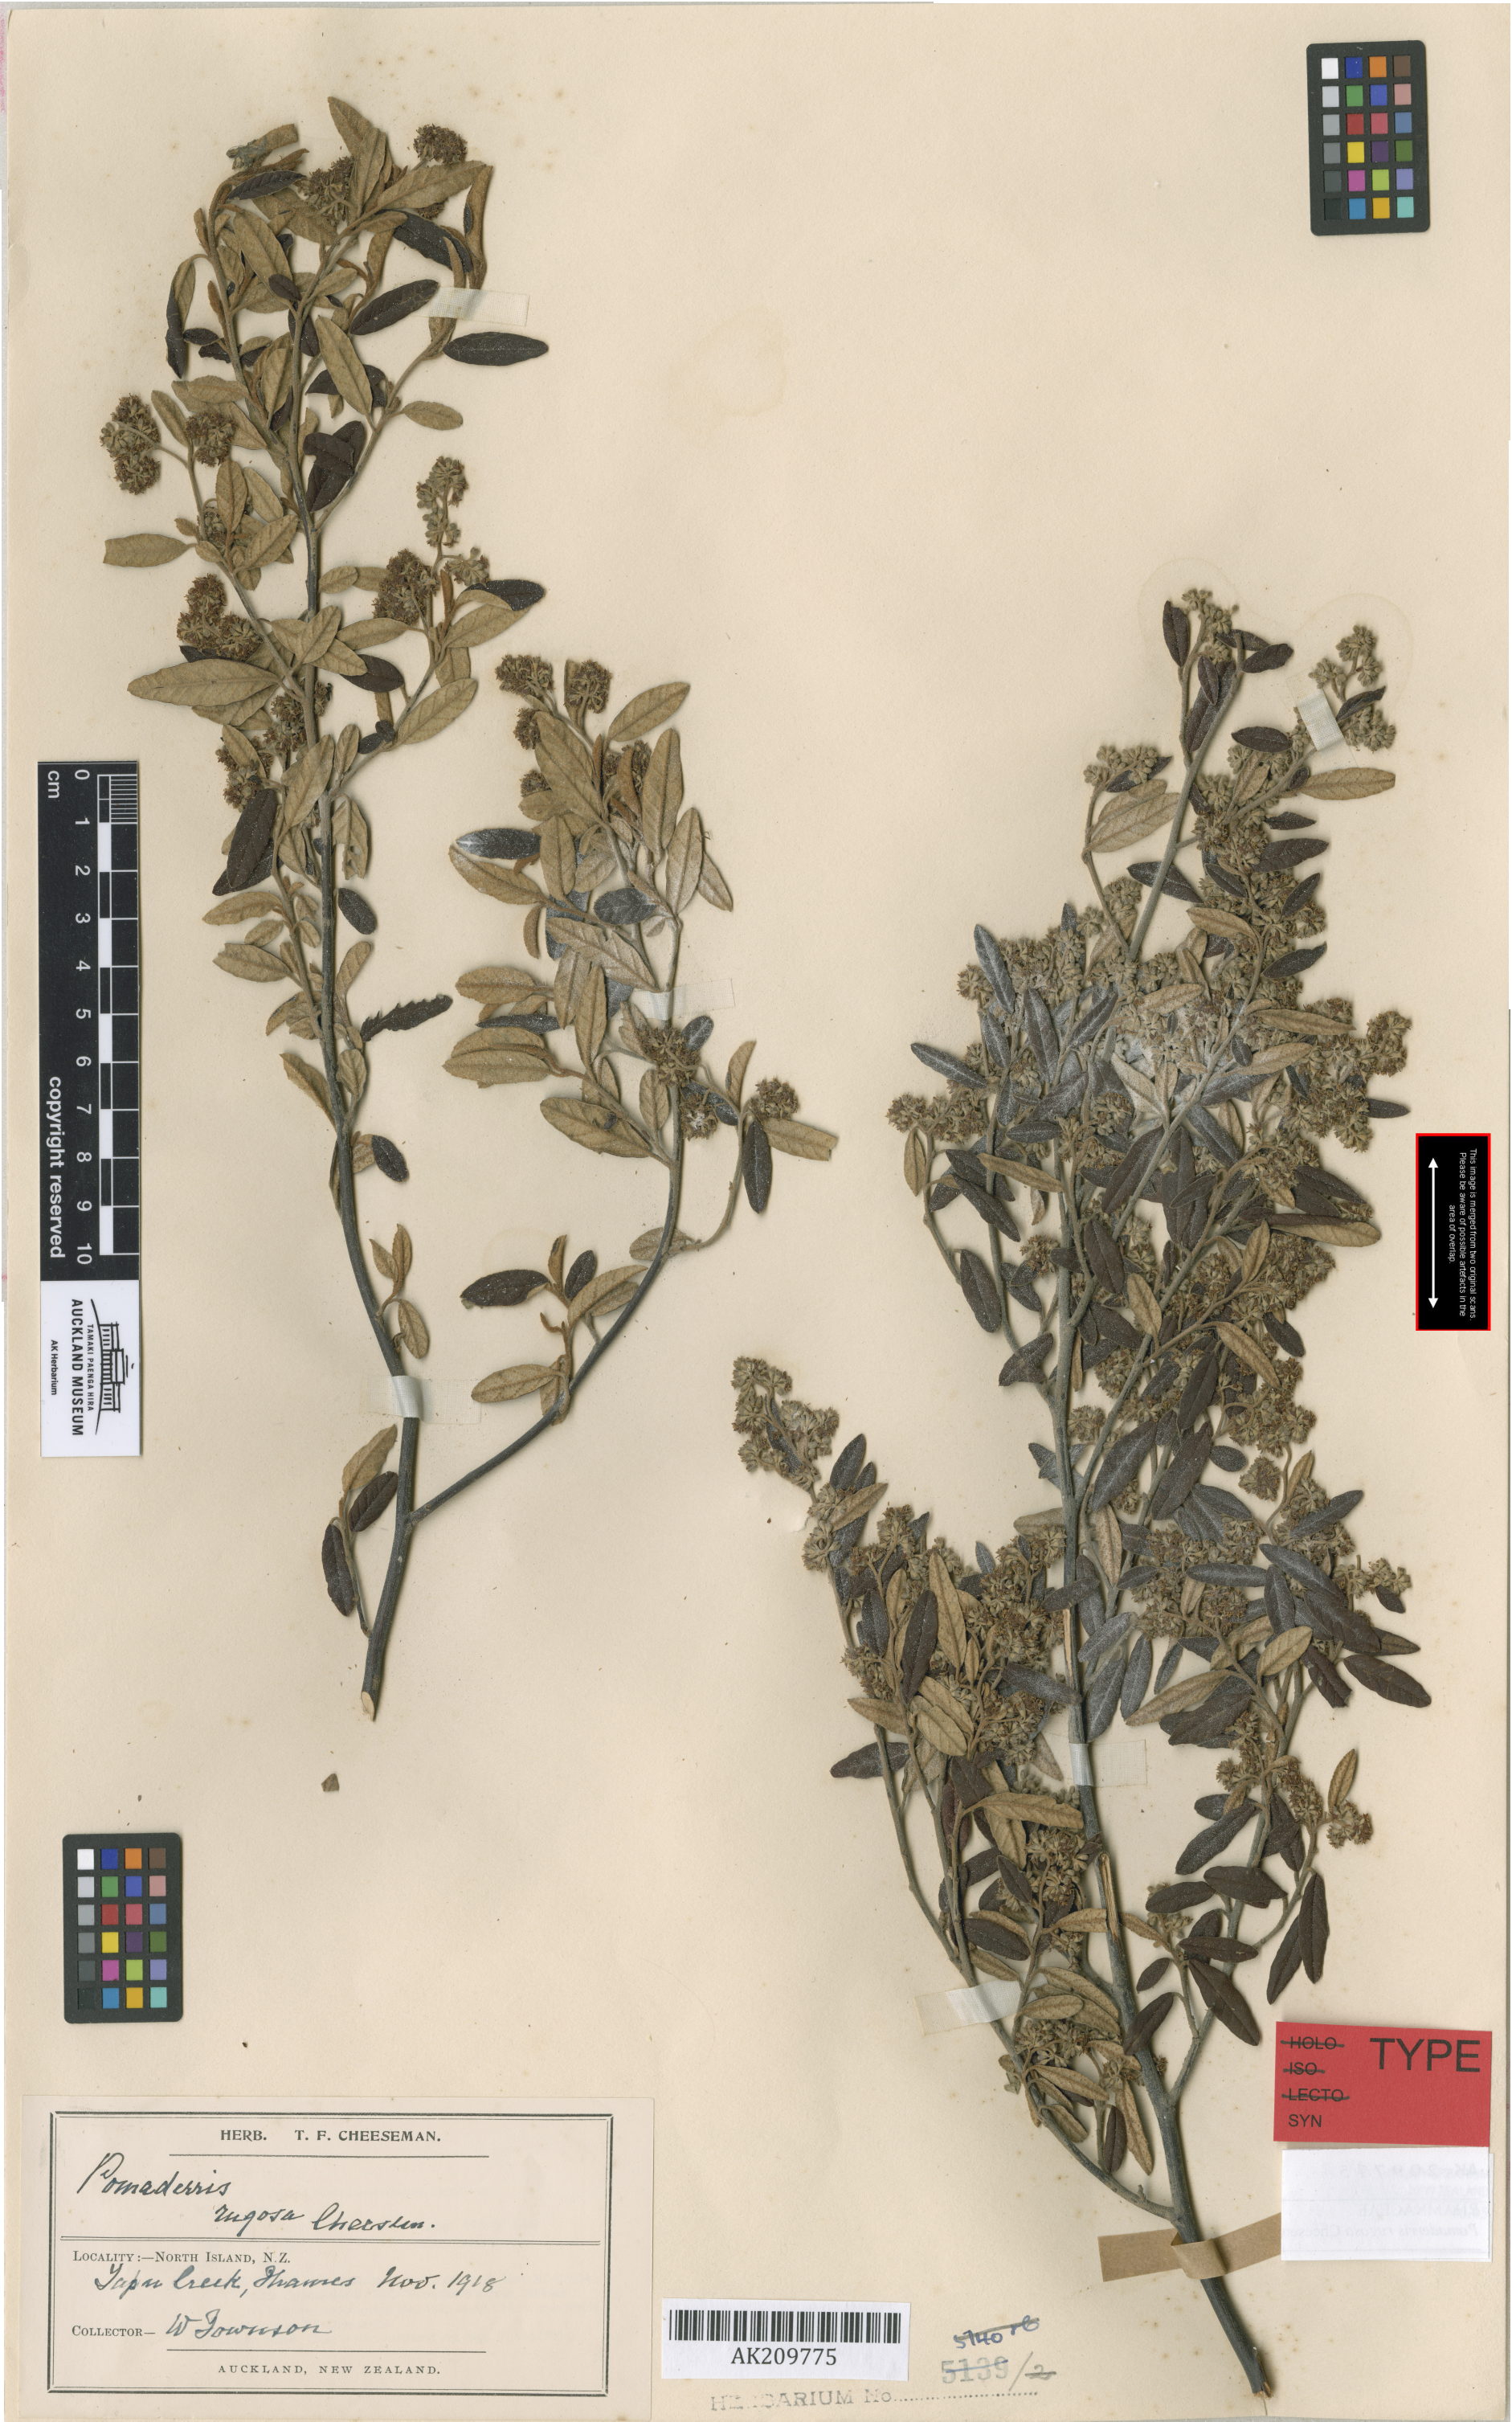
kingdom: Plantae
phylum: Tracheophyta
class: Magnoliopsida
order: Rosales
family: Rhamnaceae
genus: Pomaderris
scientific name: Pomaderris rugosa
